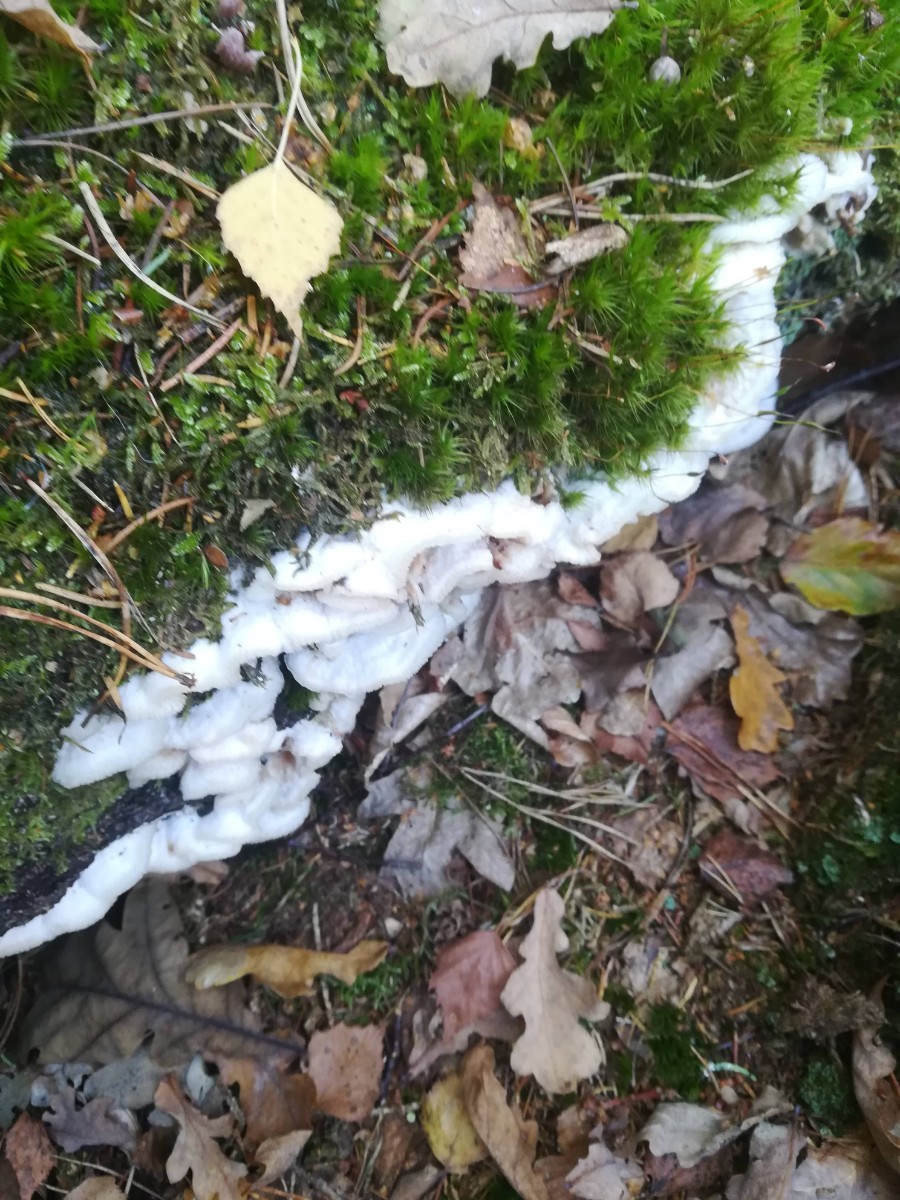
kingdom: Fungi
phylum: Basidiomycota
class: Agaricomycetes
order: Polyporales
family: Meruliaceae
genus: Phlebia
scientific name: Phlebia tremellosa
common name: bævrende åresvamp
